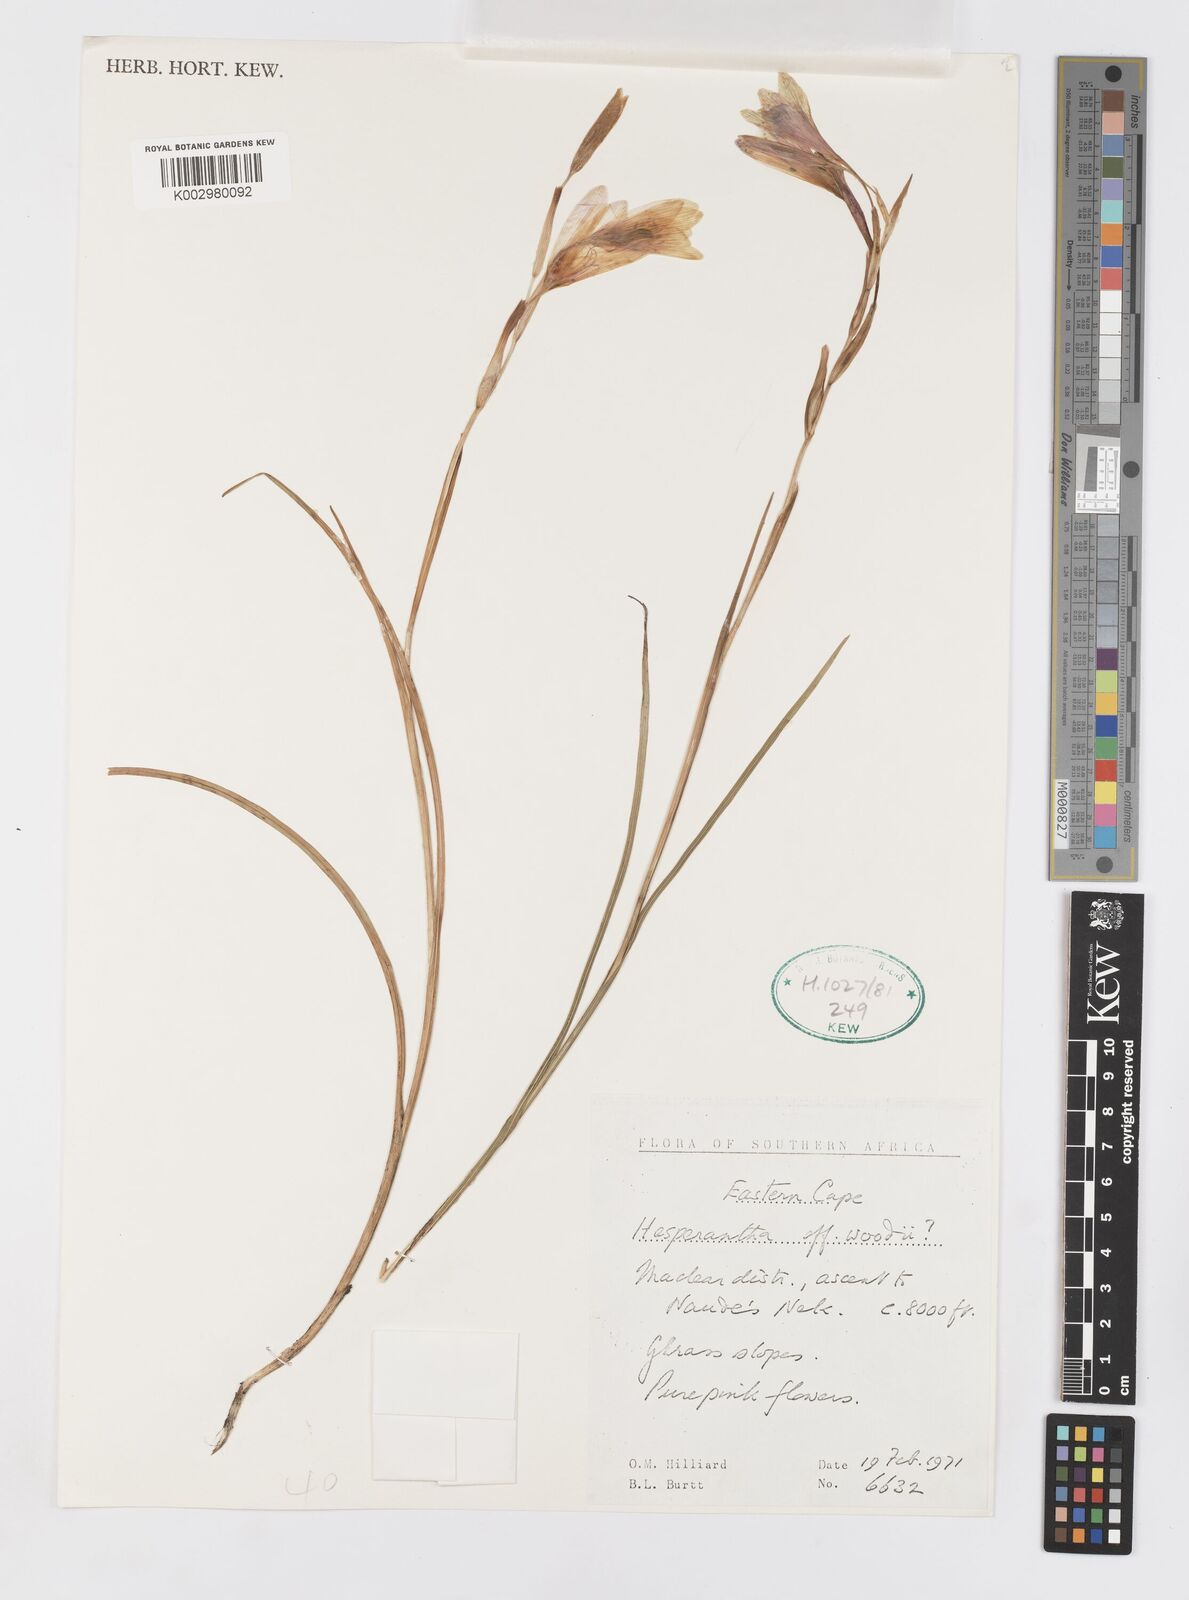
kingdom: Plantae
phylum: Tracheophyta
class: Liliopsida
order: Asparagales
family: Iridaceae
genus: Hesperantha
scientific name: Hesperantha grandiflora
